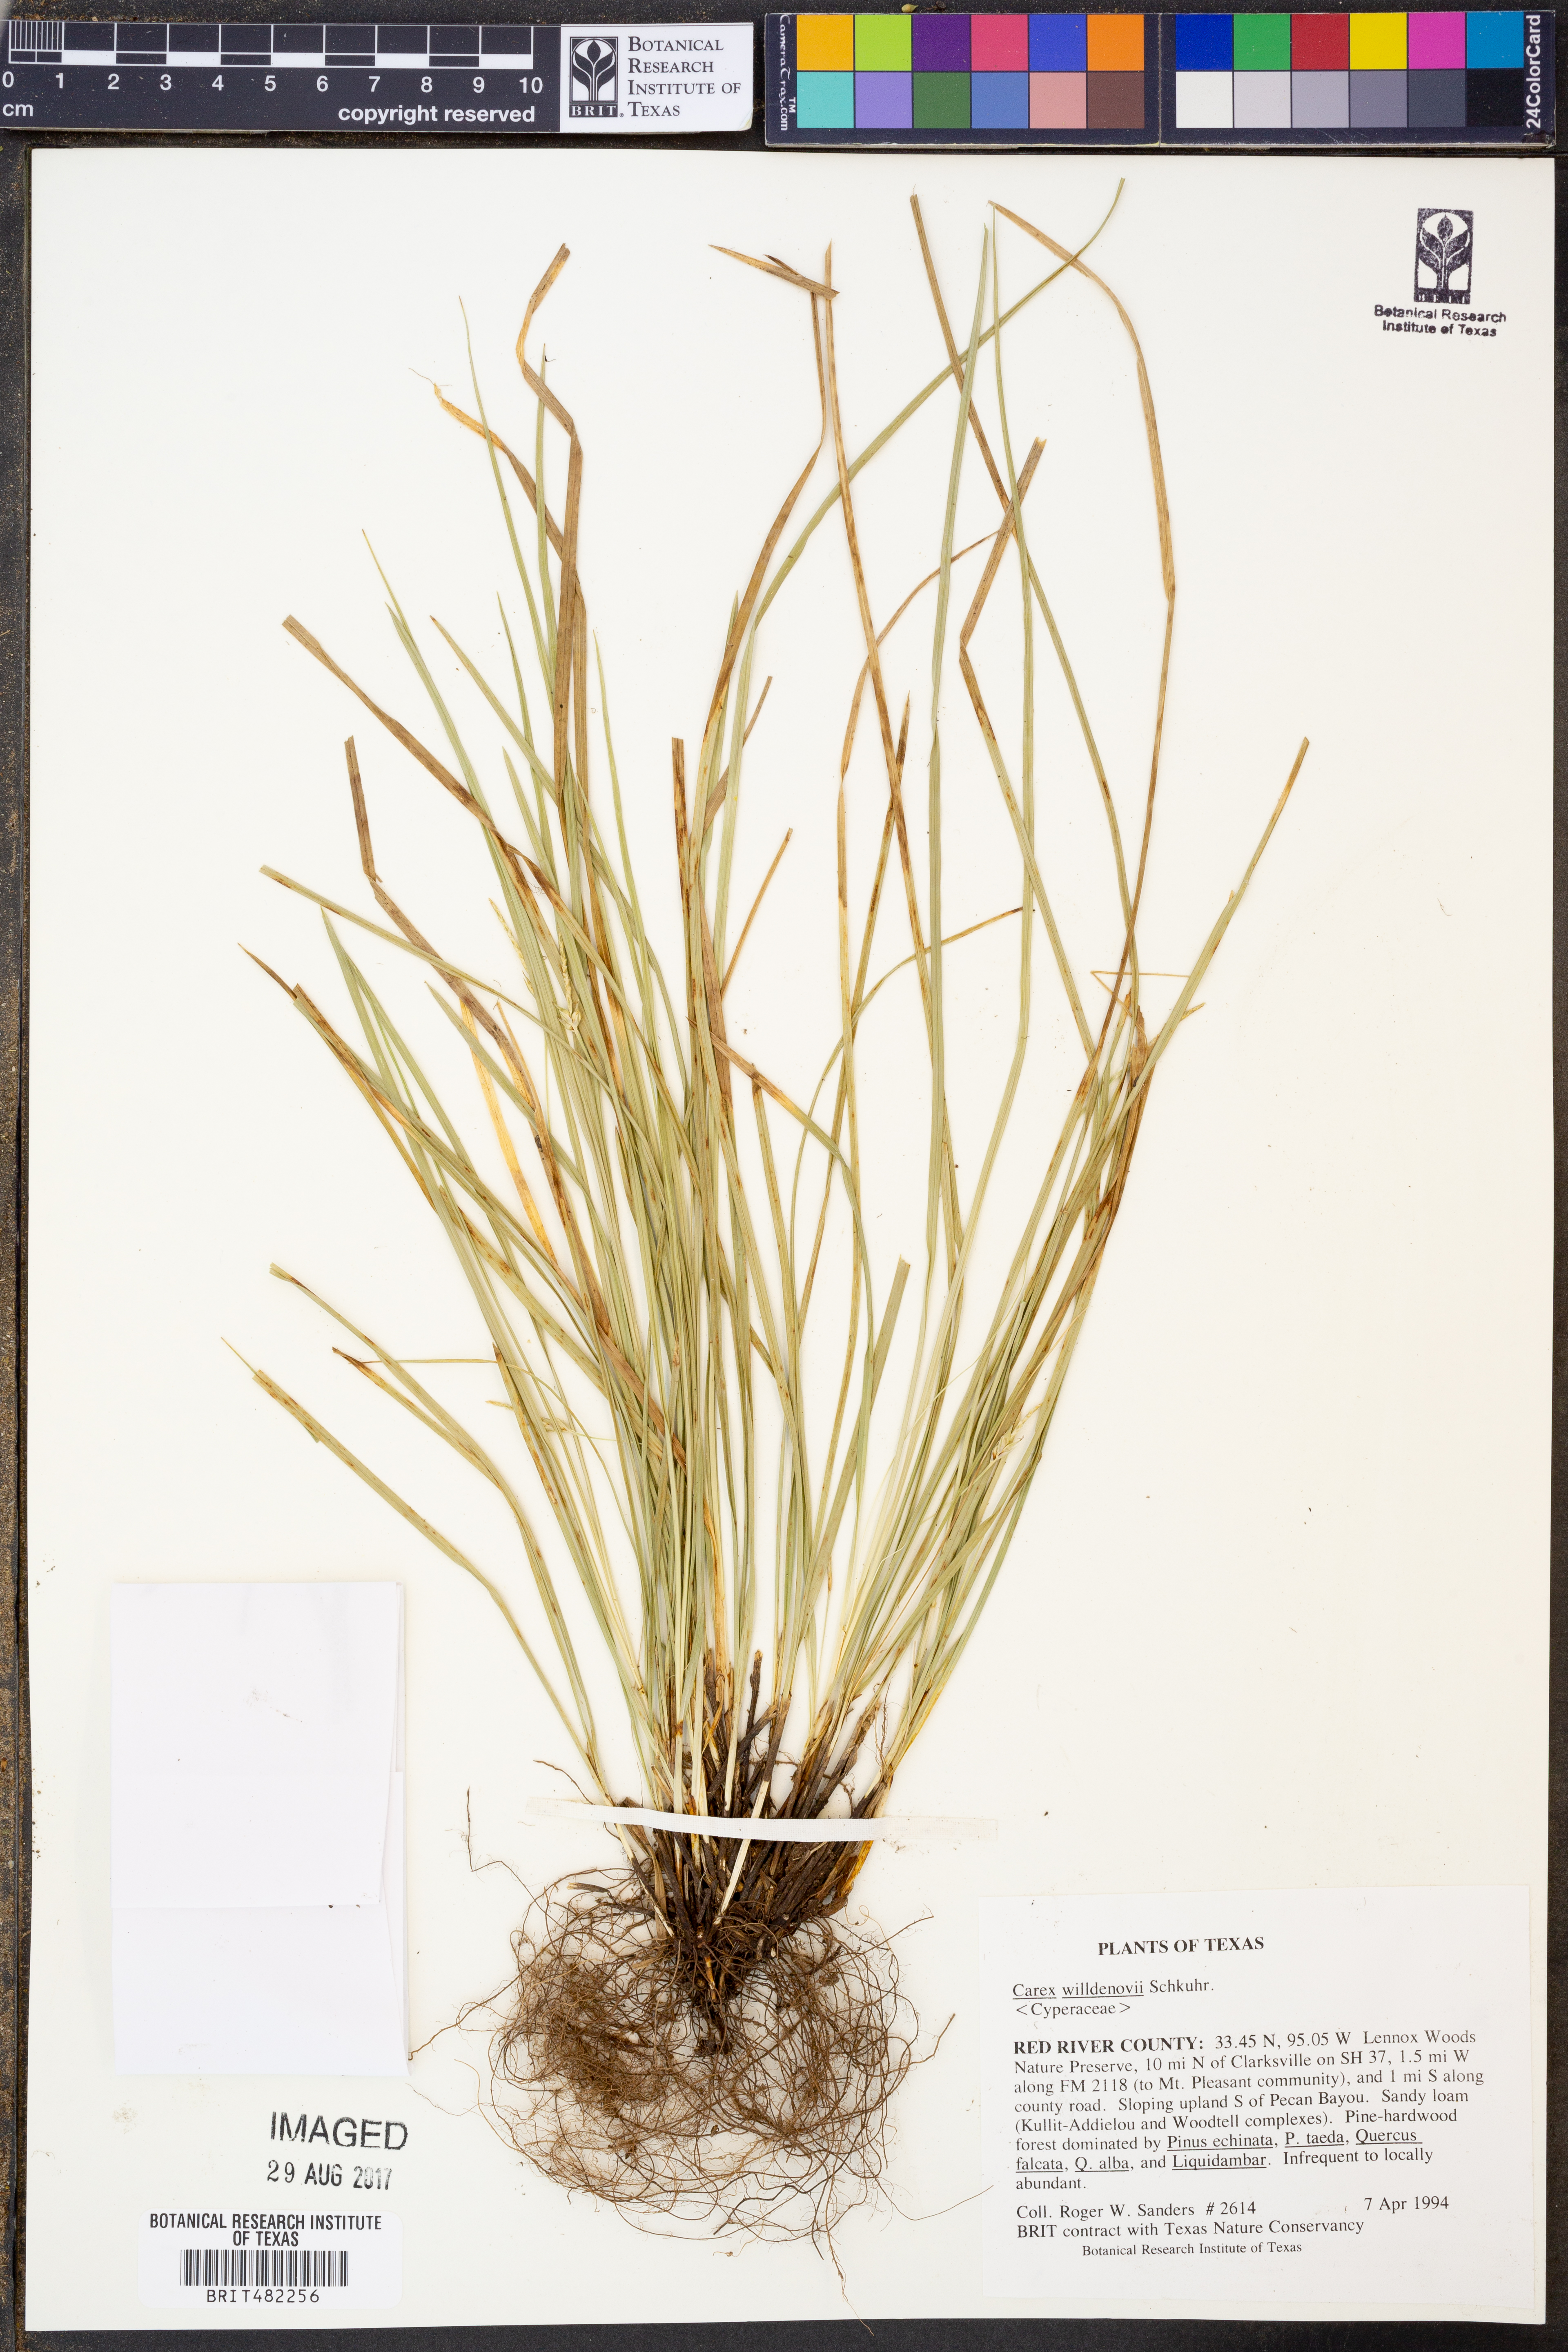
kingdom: Plantae
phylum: Tracheophyta
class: Liliopsida
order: Poales
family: Cyperaceae
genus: Carex
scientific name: Carex willdenowii
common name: Willdenow's sedge
